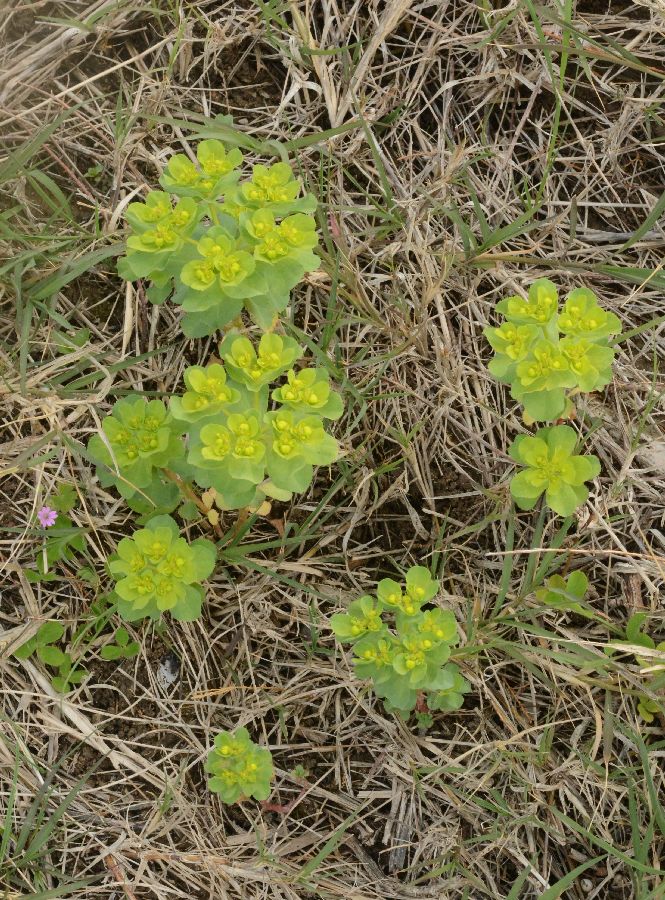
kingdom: Plantae
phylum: Tracheophyta
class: Magnoliopsida
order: Malpighiales
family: Euphorbiaceae
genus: Euphorbia
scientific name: Euphorbia helioscopia
